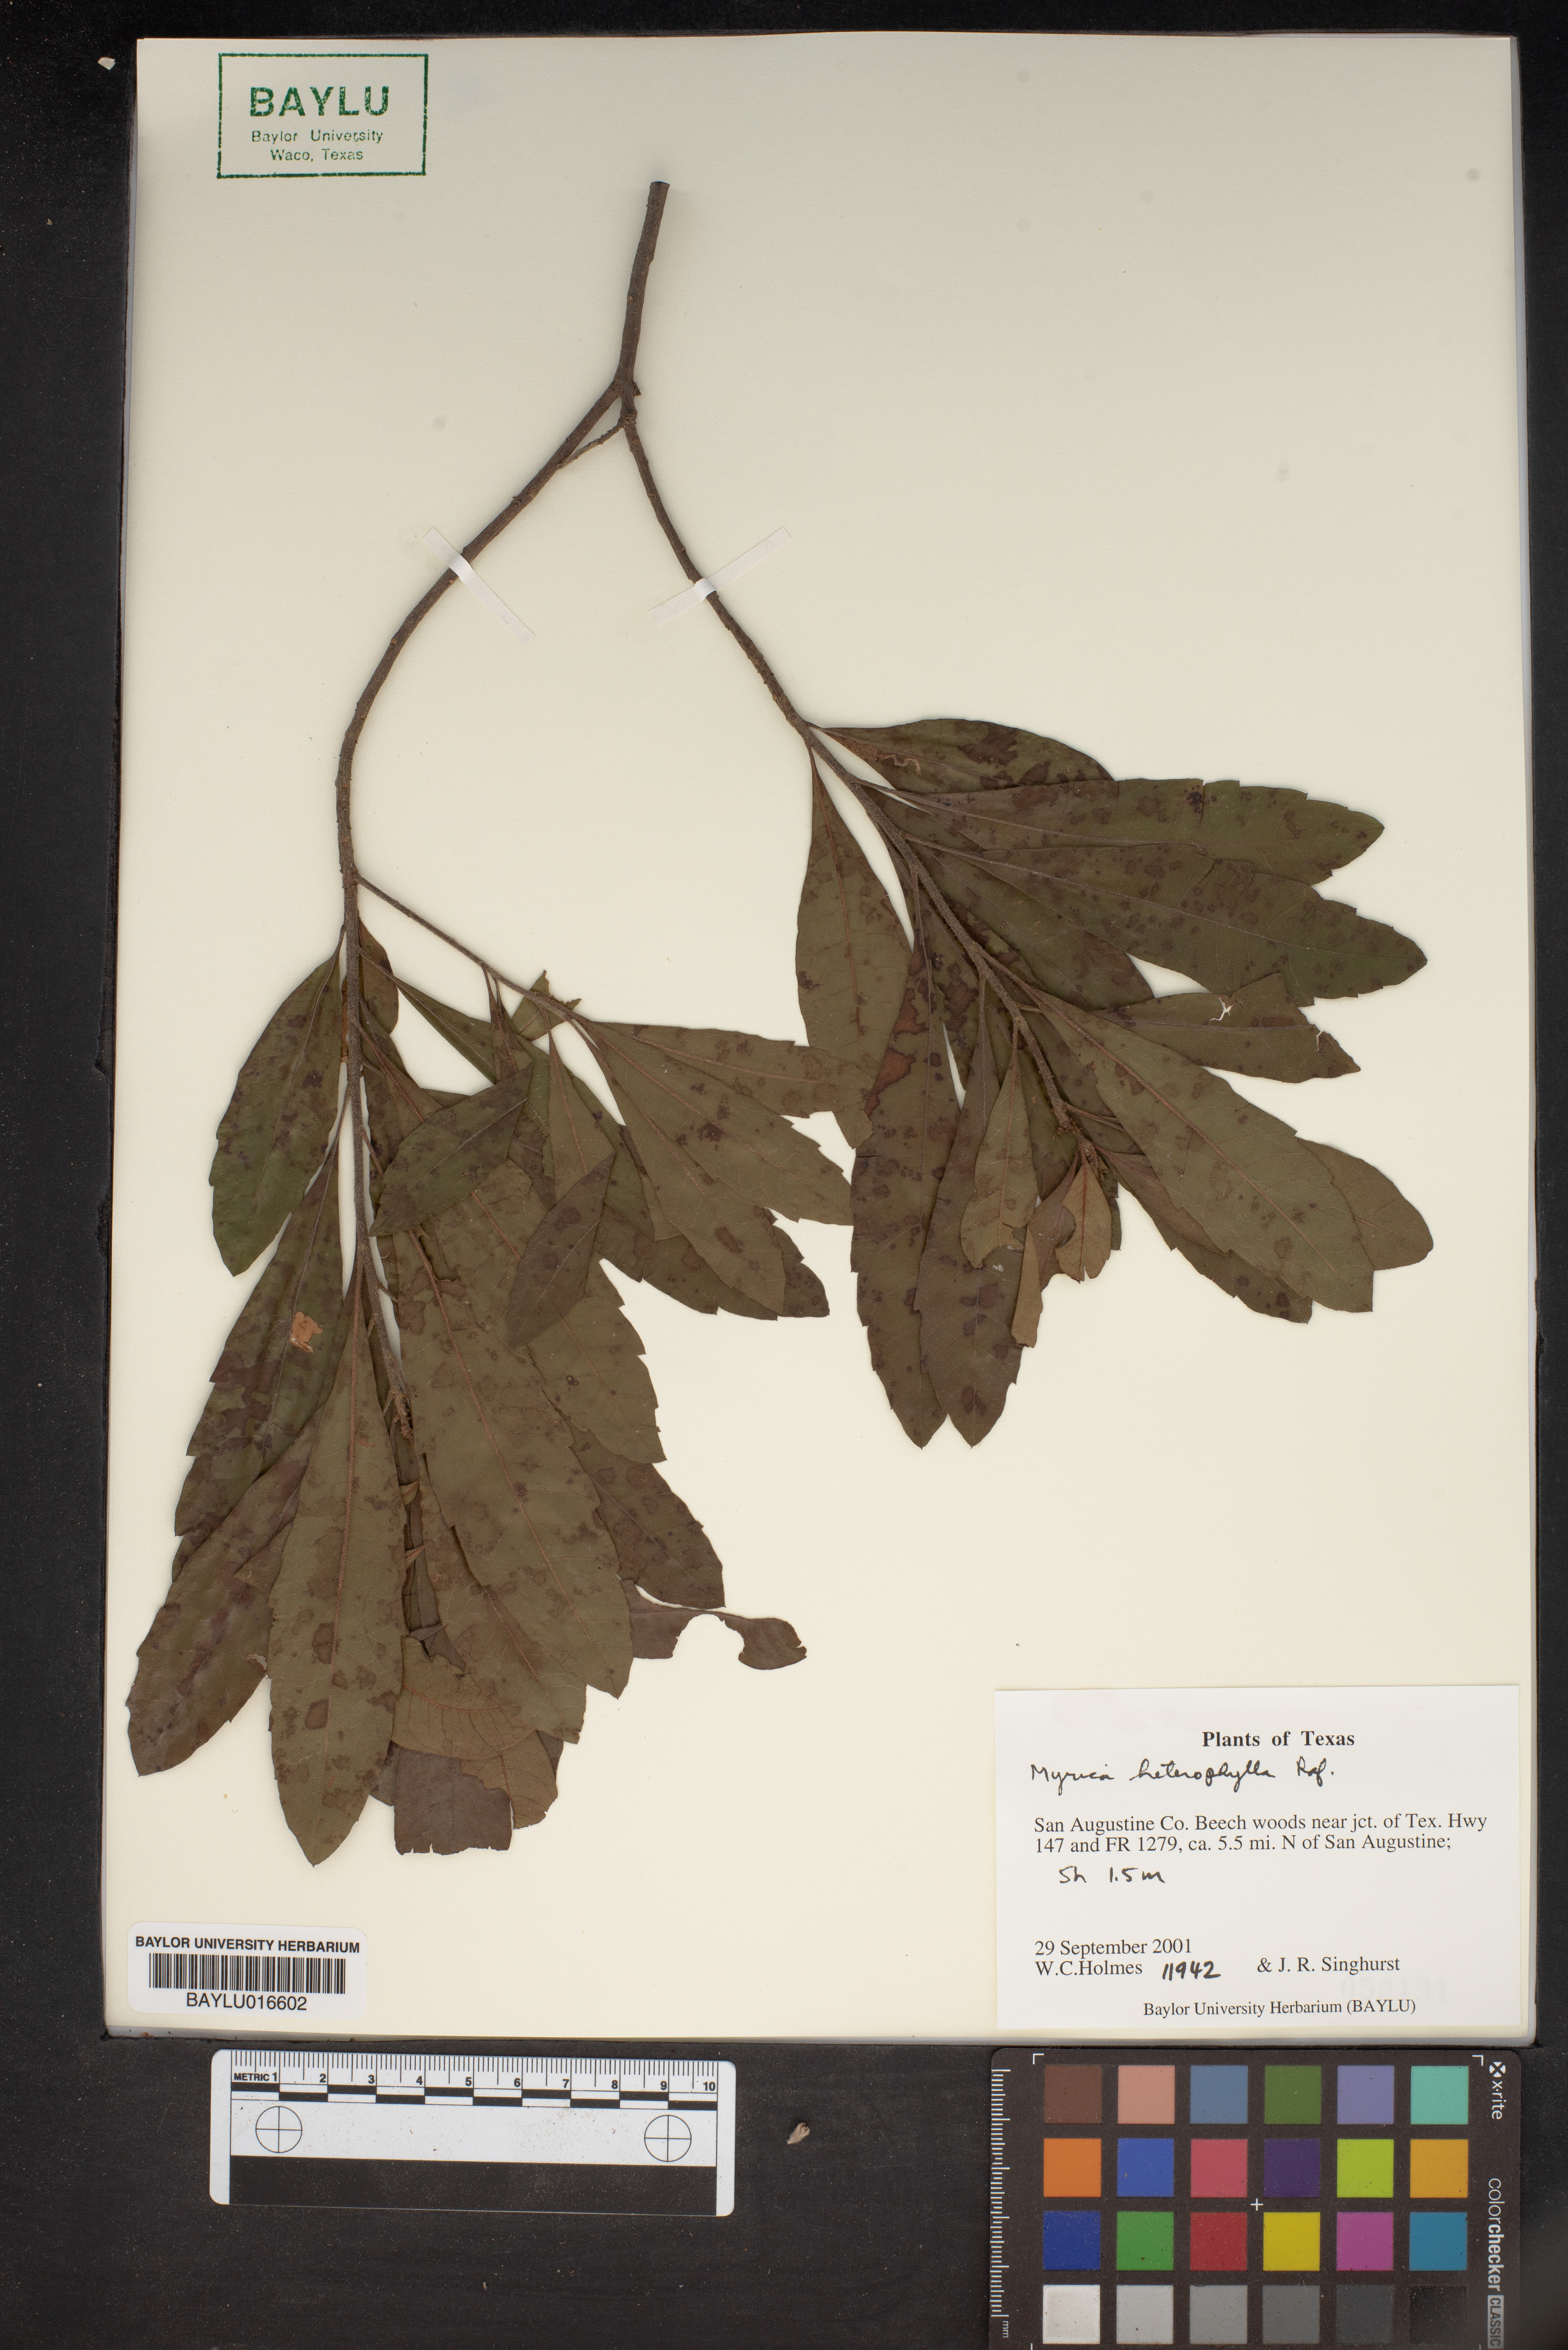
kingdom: Plantae
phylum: Tracheophyta
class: Magnoliopsida
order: Fagales
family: Myricaceae
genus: Morella
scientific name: Morella caroliniensis
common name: Evergreen bayberry
